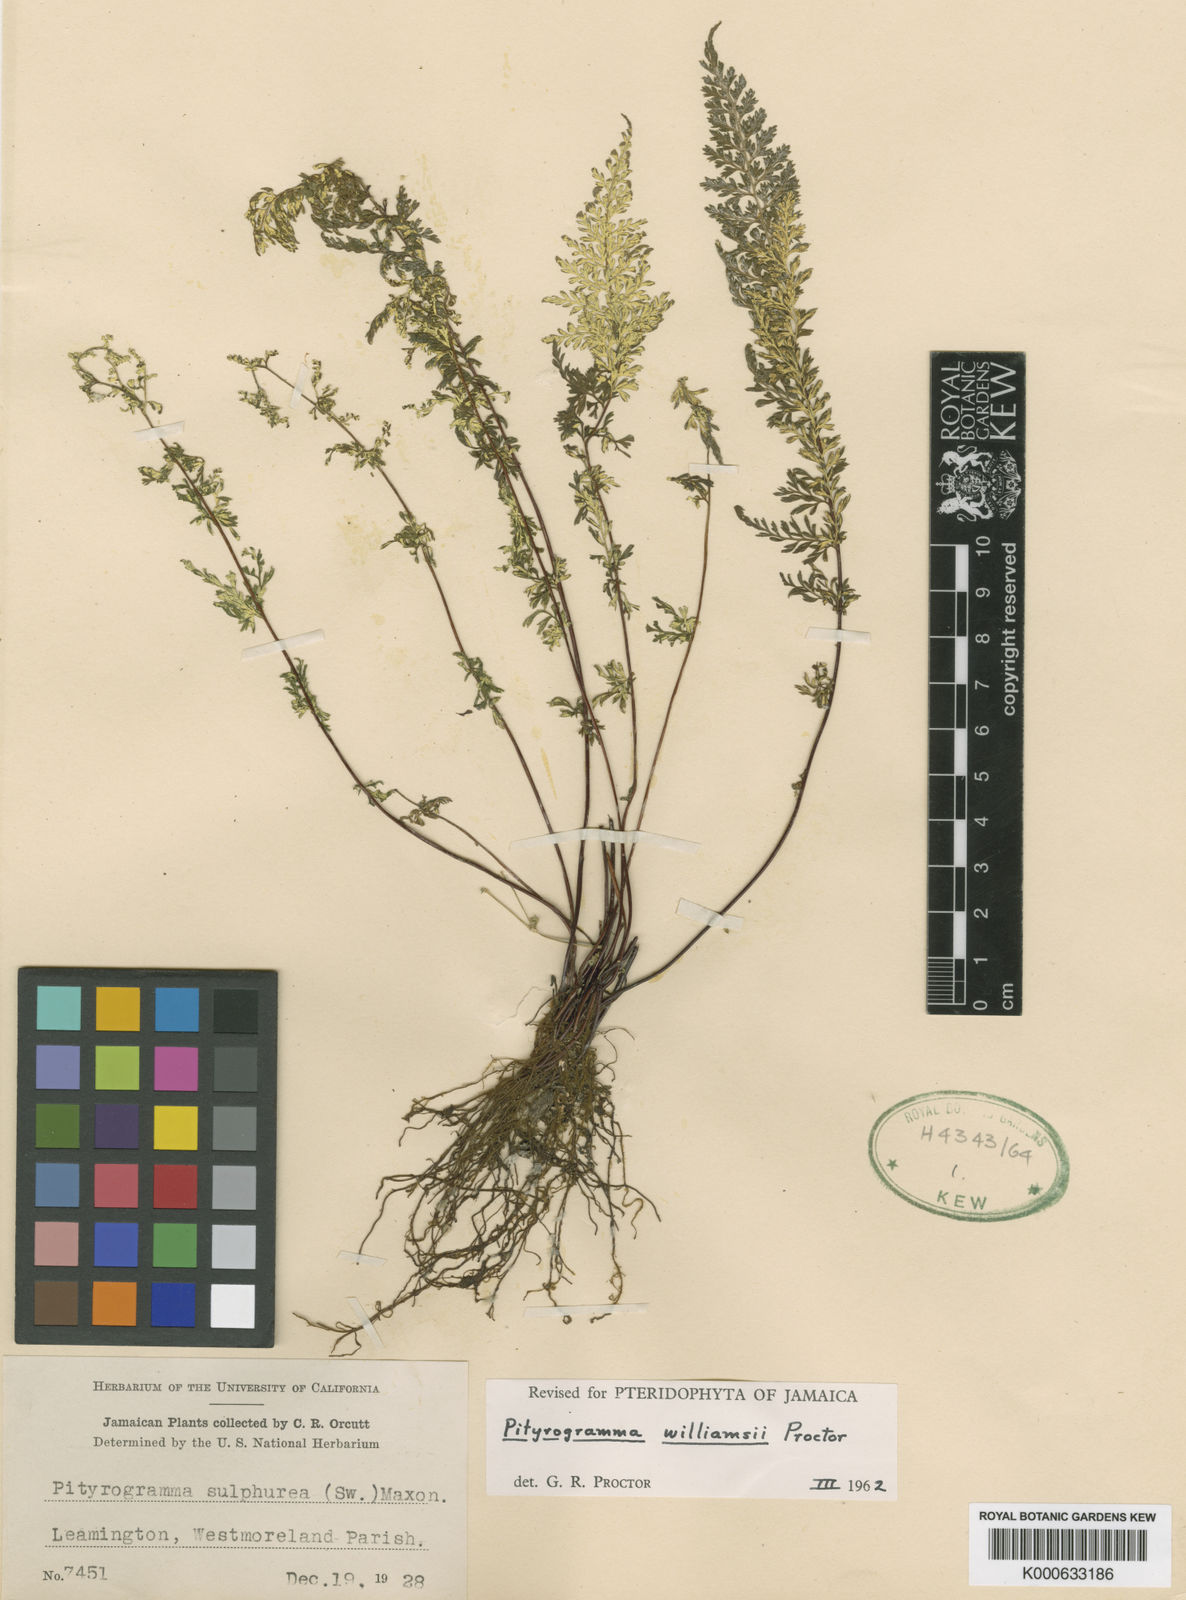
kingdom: Plantae
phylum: Tracheophyta
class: Polypodiopsida
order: Polypodiales
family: Pteridaceae
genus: Pityrogramma
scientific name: Pityrogramma williamsii
